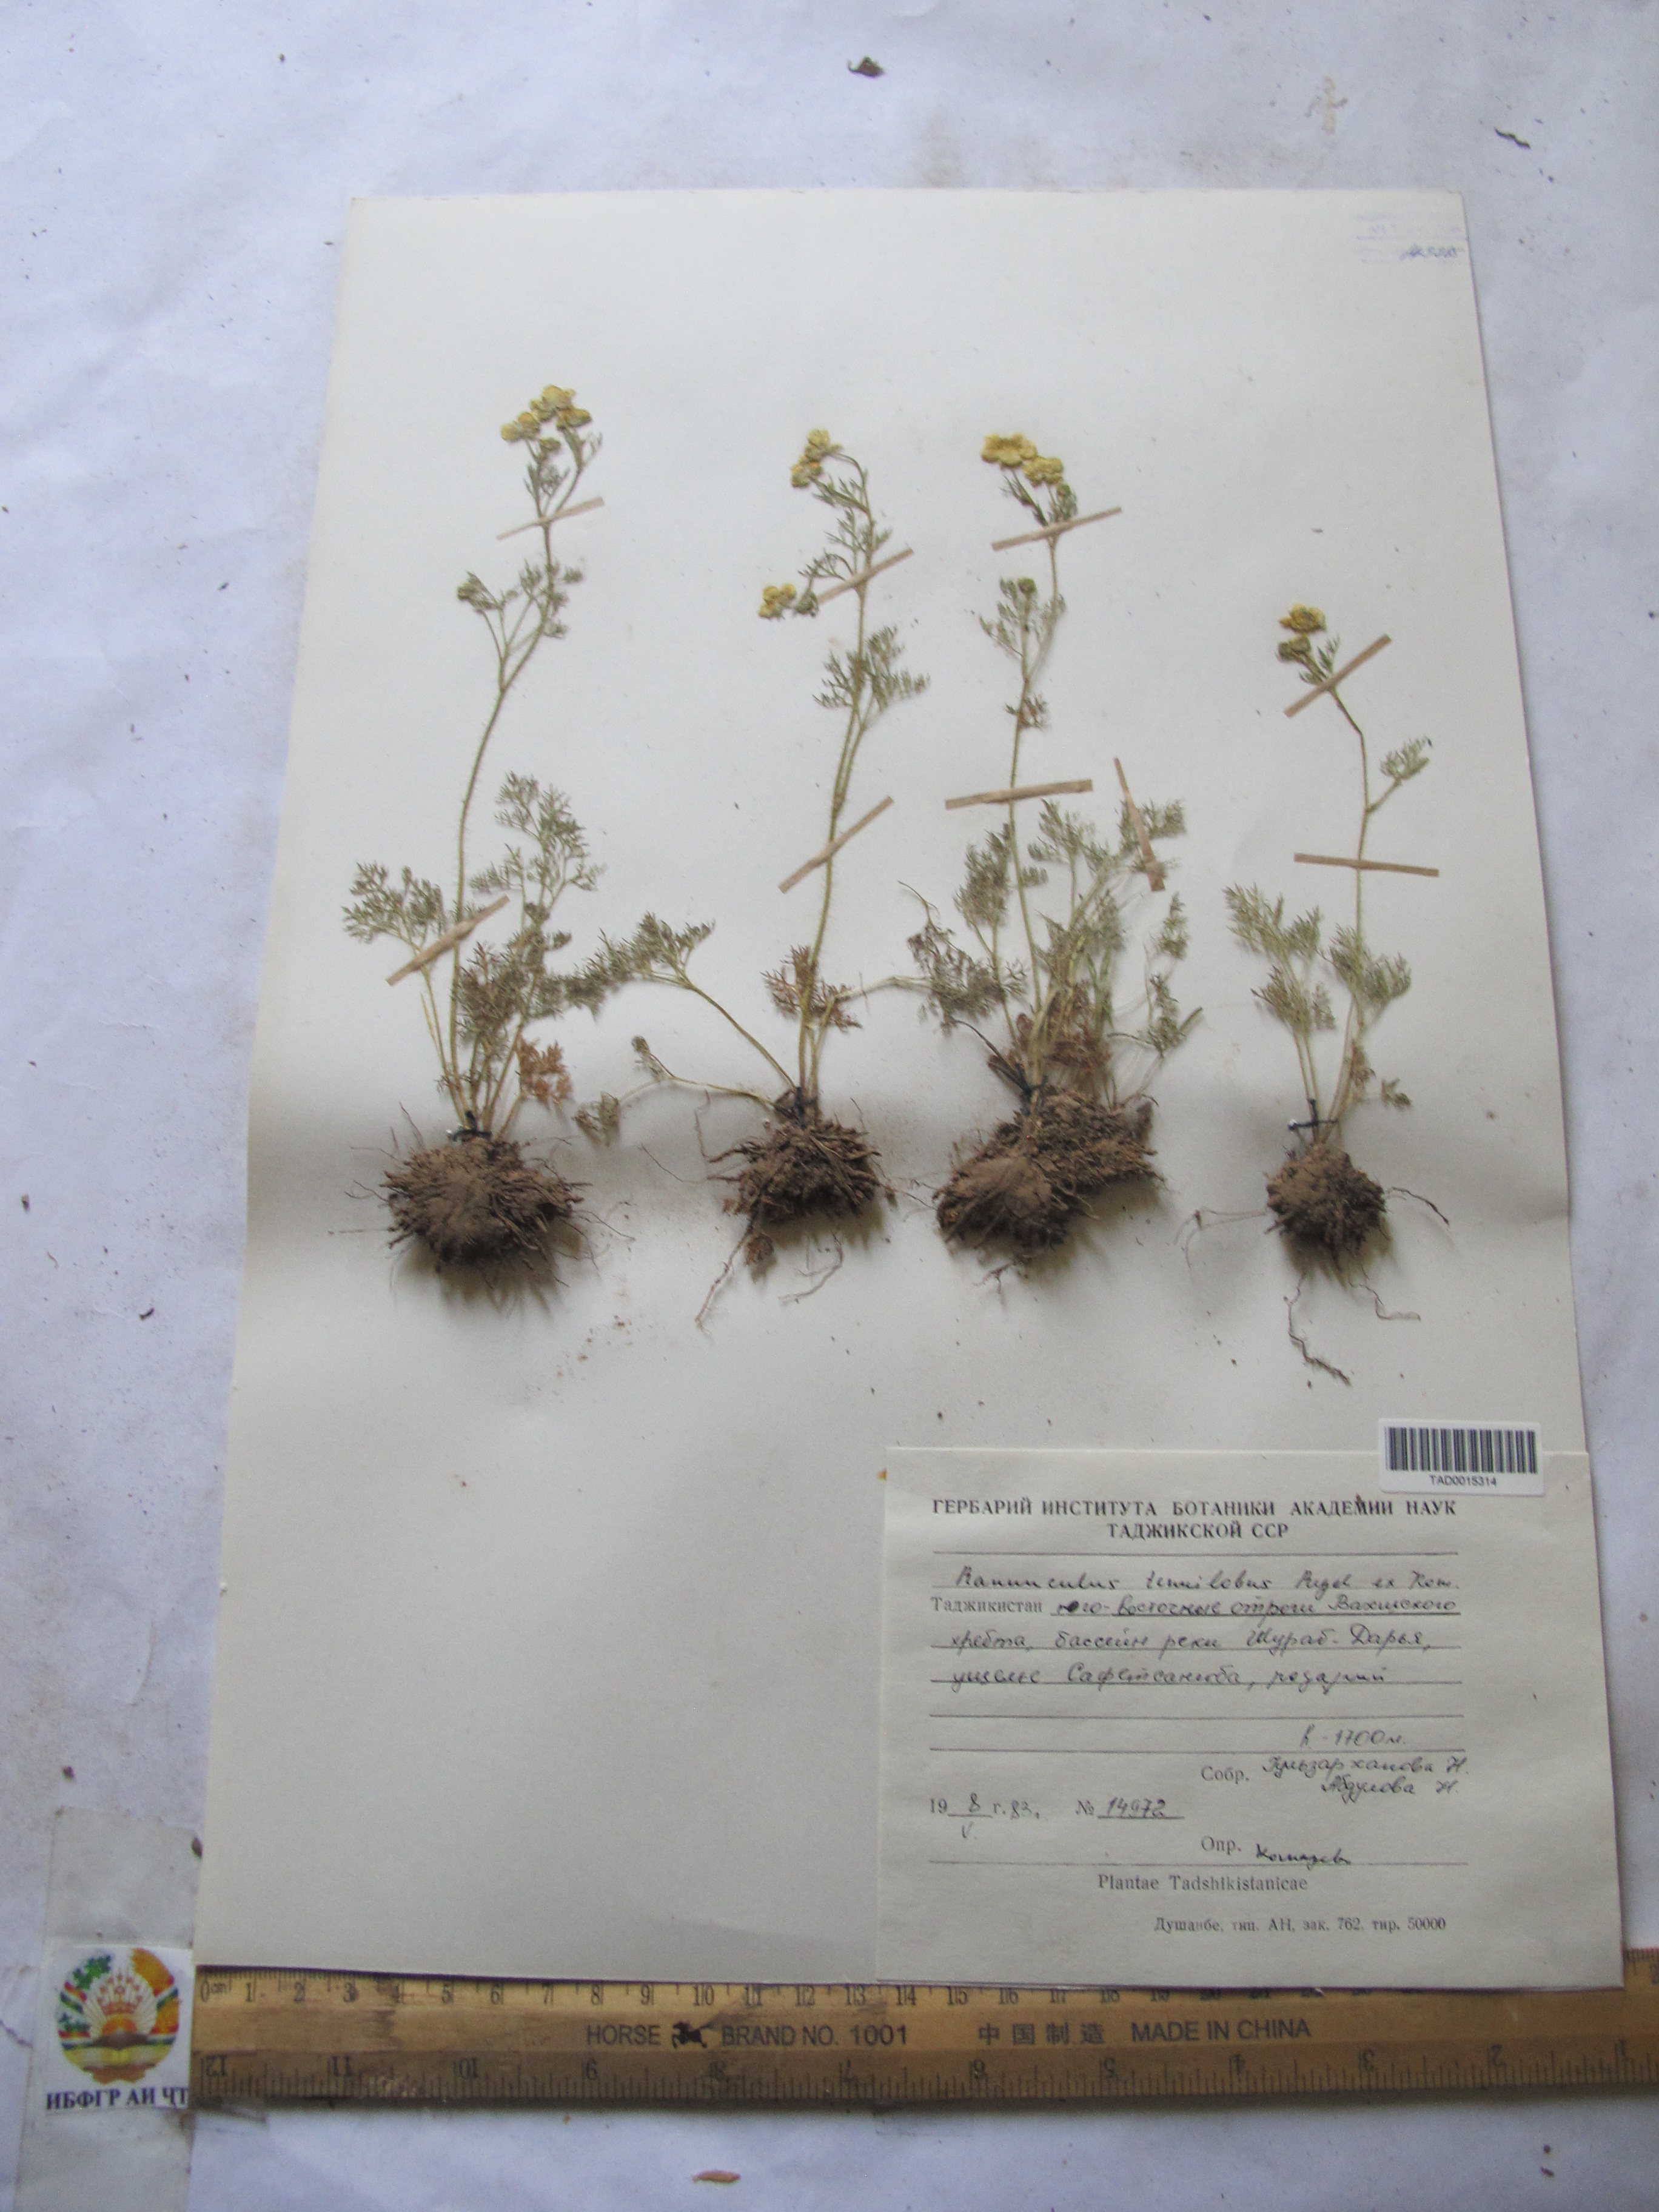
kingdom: Plantae
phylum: Tracheophyta
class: Magnoliopsida
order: Ranunculales
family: Ranunculaceae
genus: Ranunculus
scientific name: Ranunculus tenuilobus
